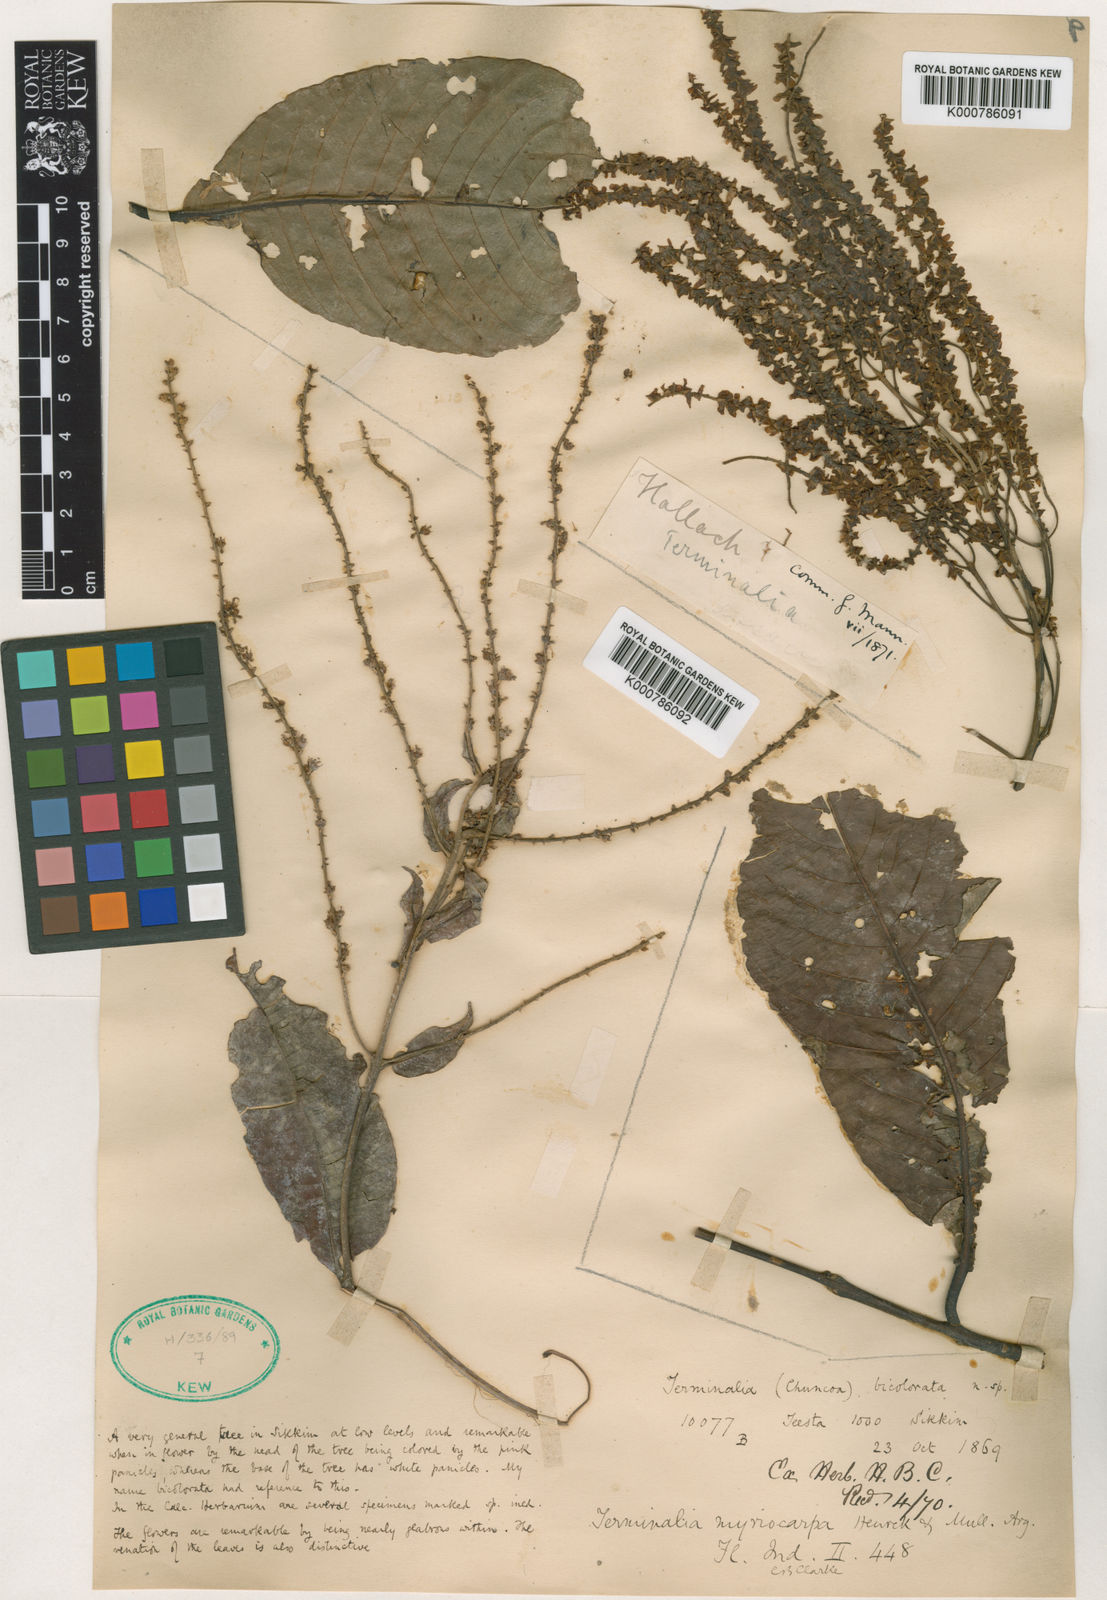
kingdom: Plantae
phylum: Tracheophyta
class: Magnoliopsida
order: Myrtales
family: Combretaceae
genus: Terminalia
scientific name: Terminalia
